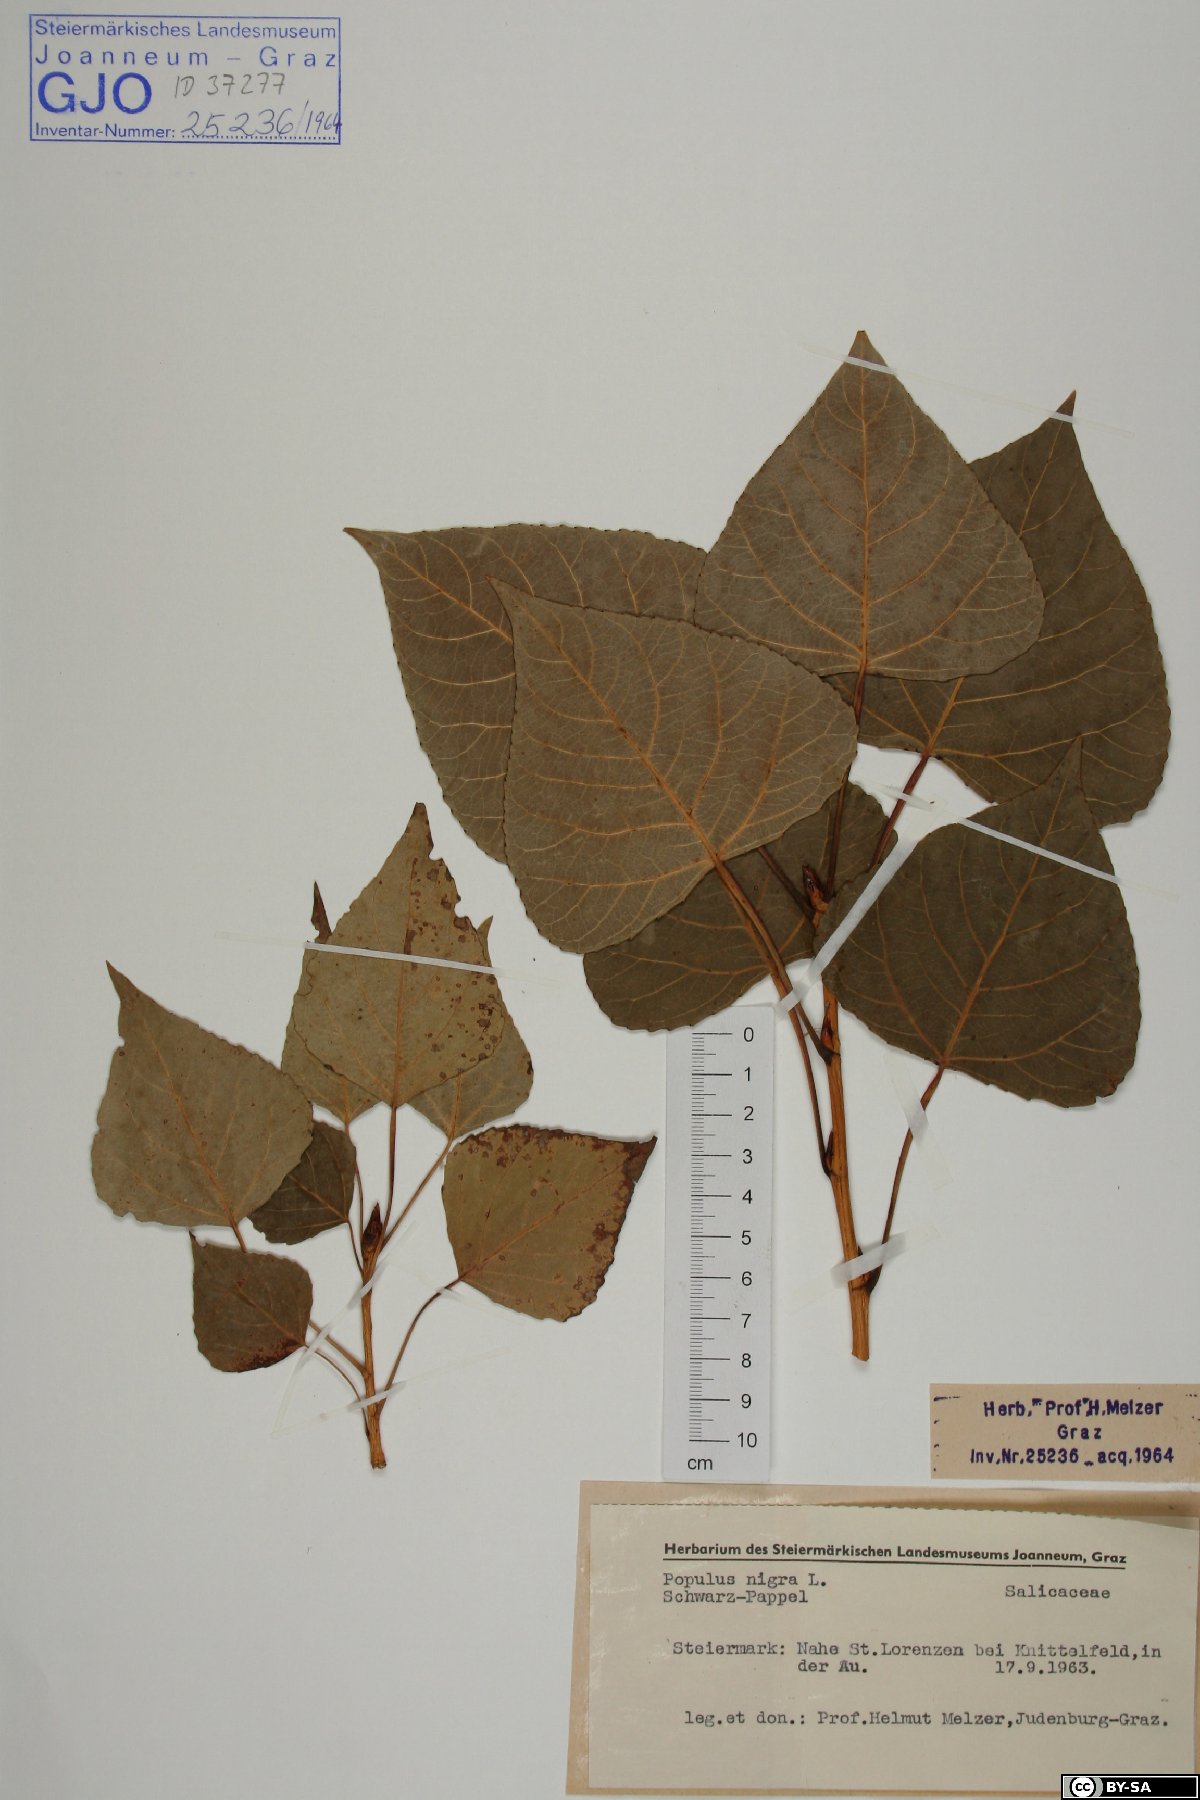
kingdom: Plantae
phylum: Tracheophyta
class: Magnoliopsida
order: Malpighiales
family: Salicaceae
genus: Populus
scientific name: Populus nigra
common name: Black poplar
